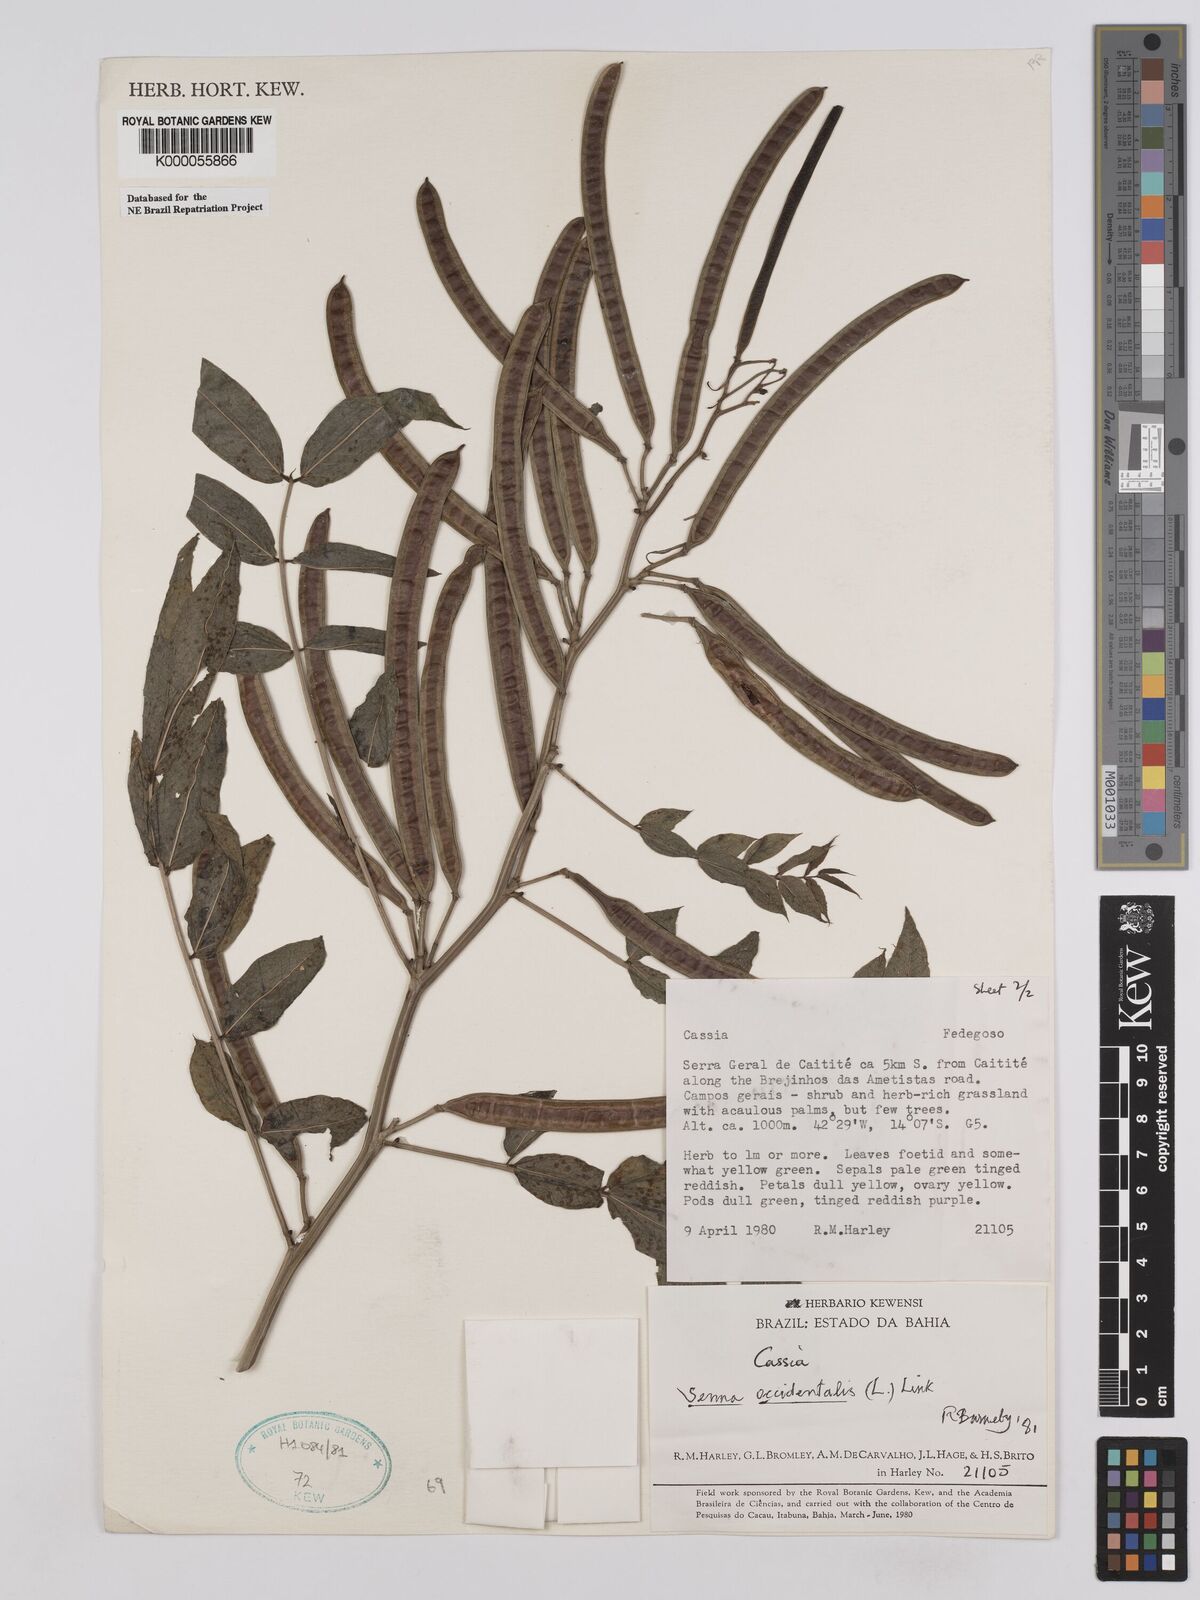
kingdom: Plantae
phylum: Tracheophyta
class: Magnoliopsida
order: Fabales
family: Fabaceae
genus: Senna
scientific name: Senna occidentalis
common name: Septicweed
